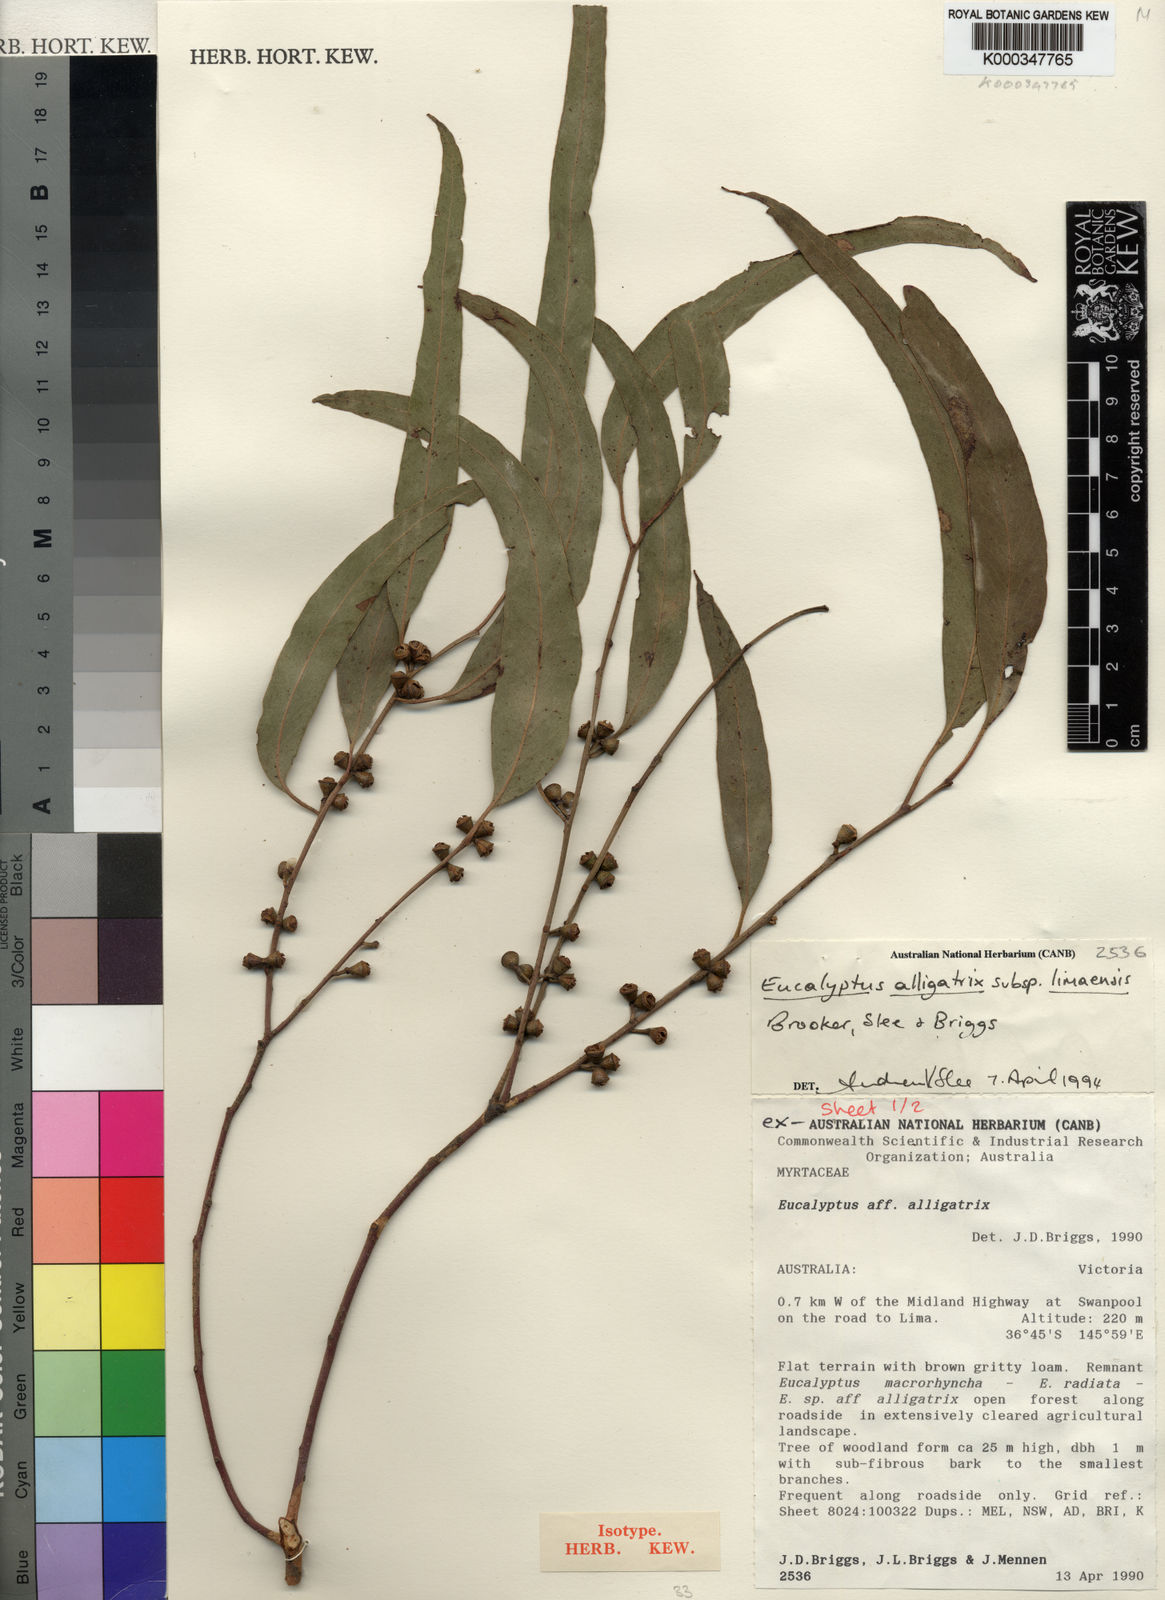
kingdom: Plantae
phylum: Tracheophyta
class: Magnoliopsida
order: Myrtales
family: Myrtaceae
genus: Eucalyptus
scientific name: Eucalyptus alligatrix
